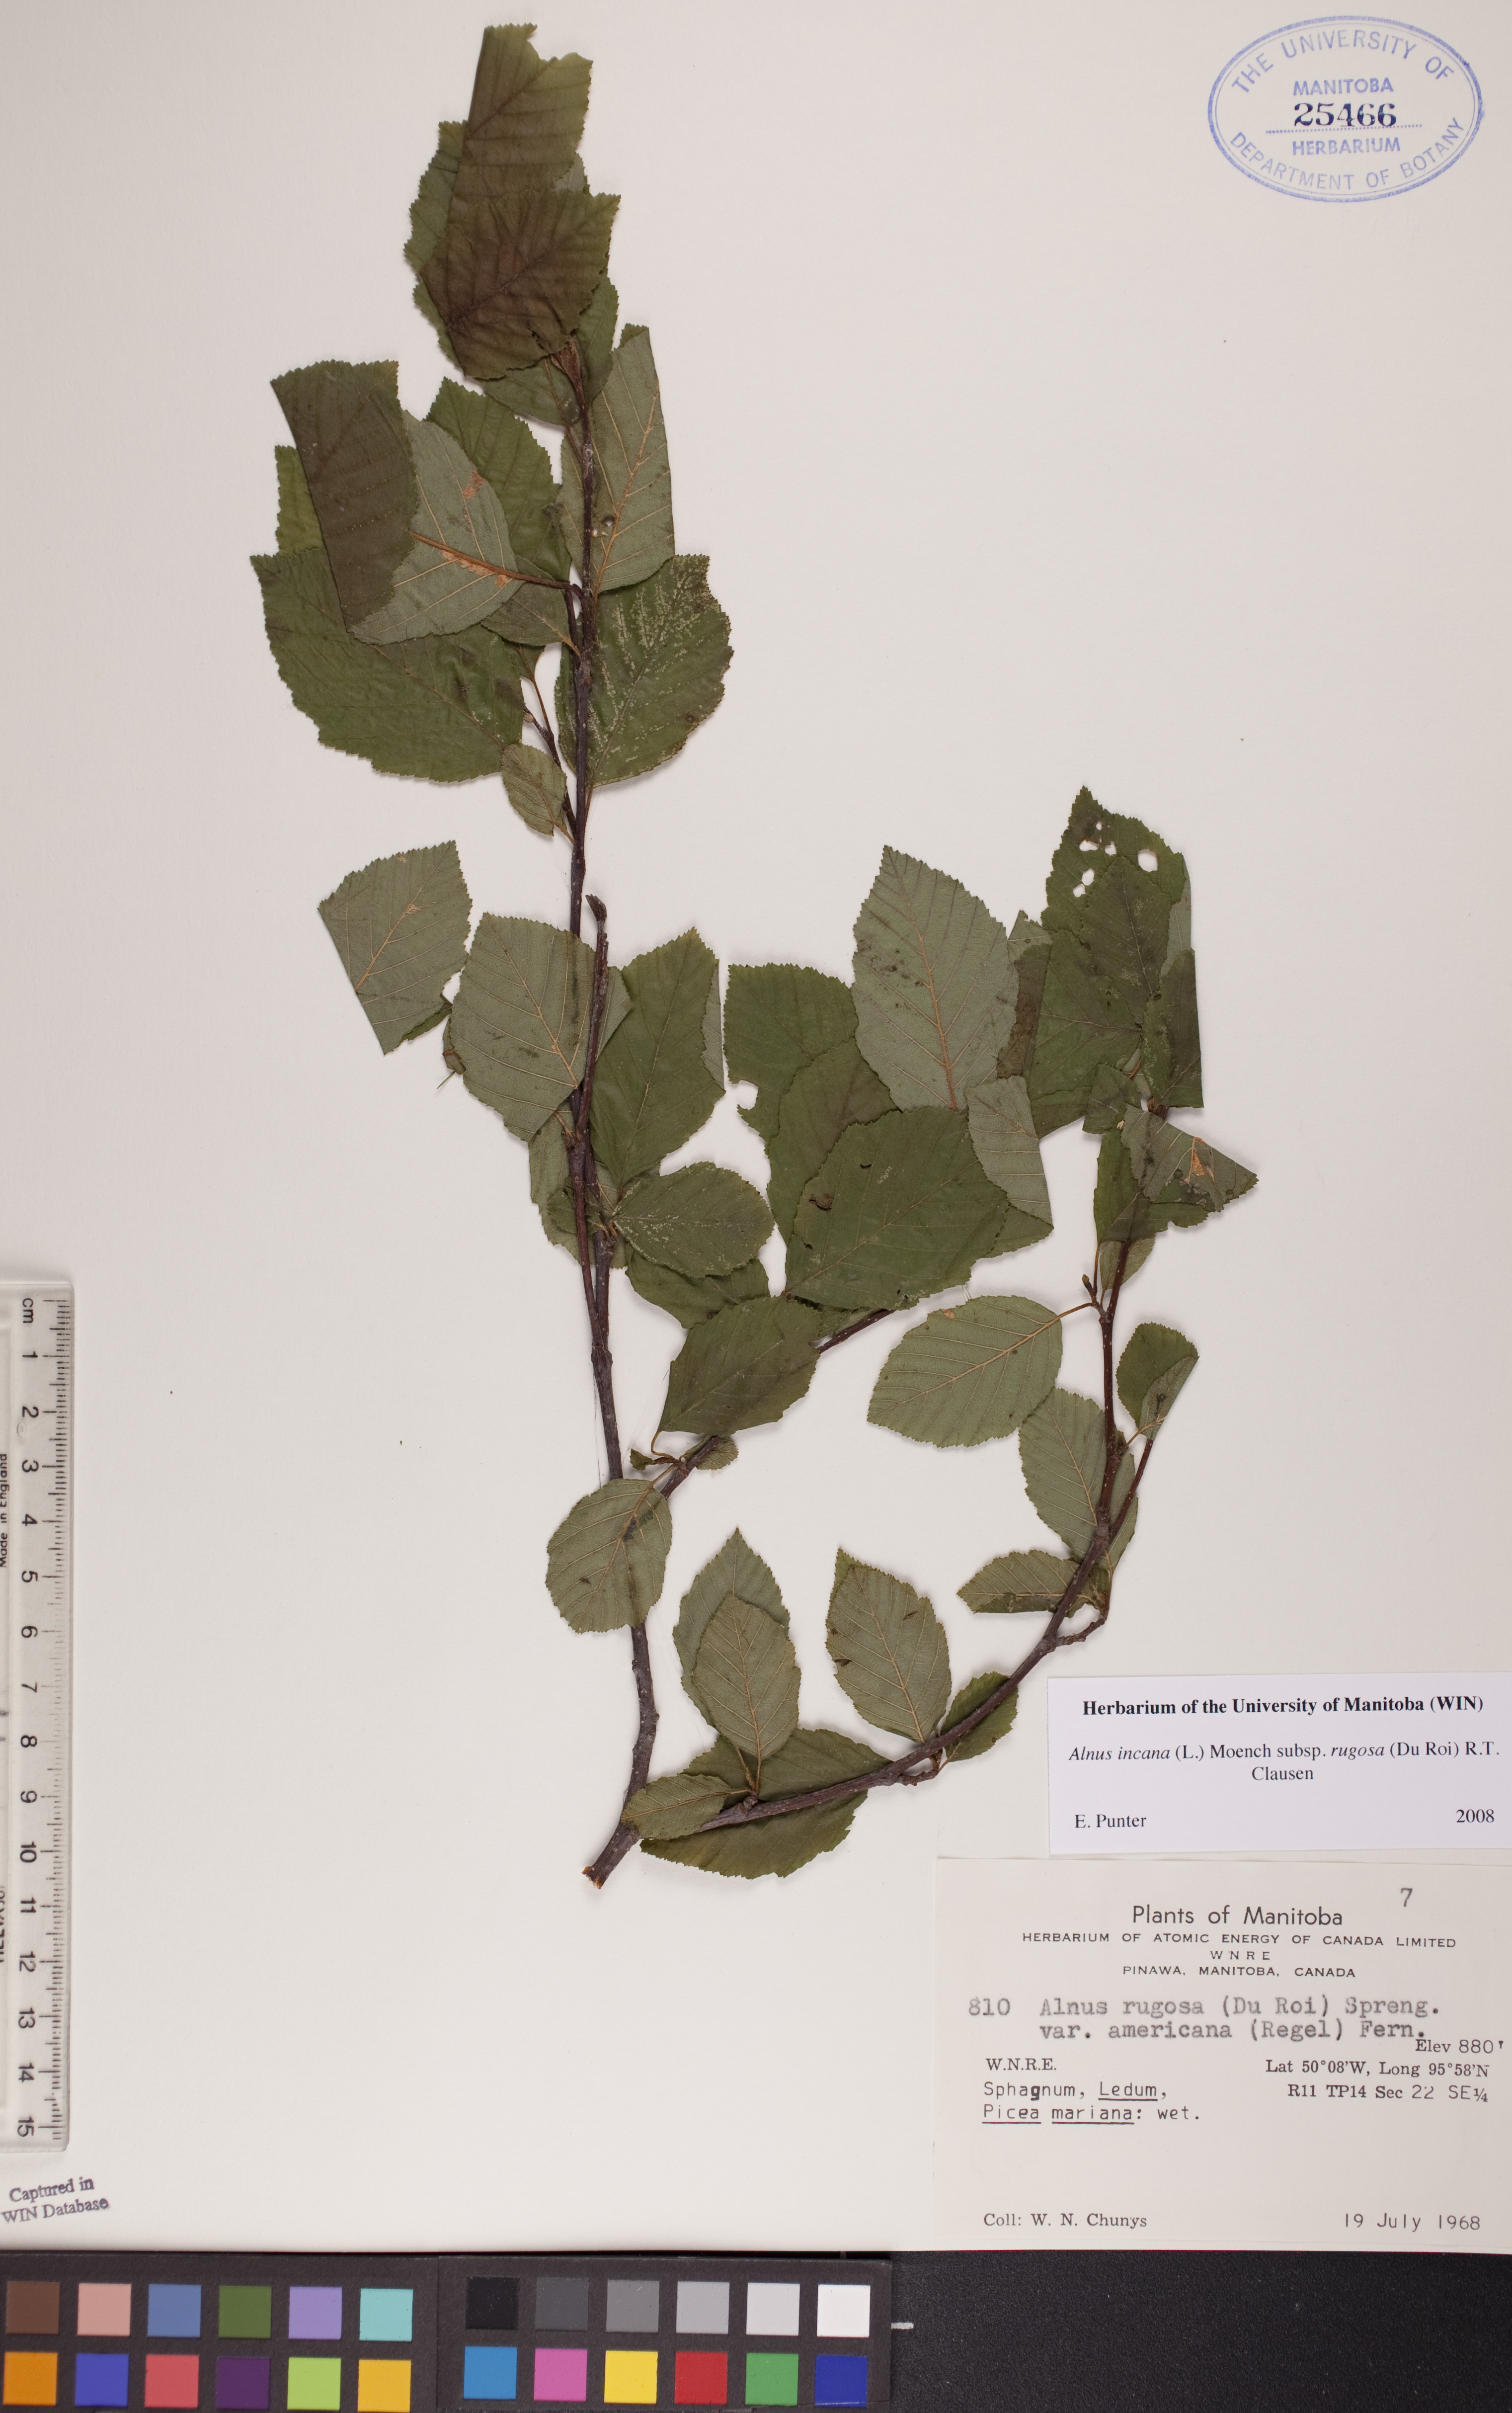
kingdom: Plantae
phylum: Tracheophyta
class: Magnoliopsida
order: Fagales
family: Betulaceae
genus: Alnus
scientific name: Alnus incana
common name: Grey alder
